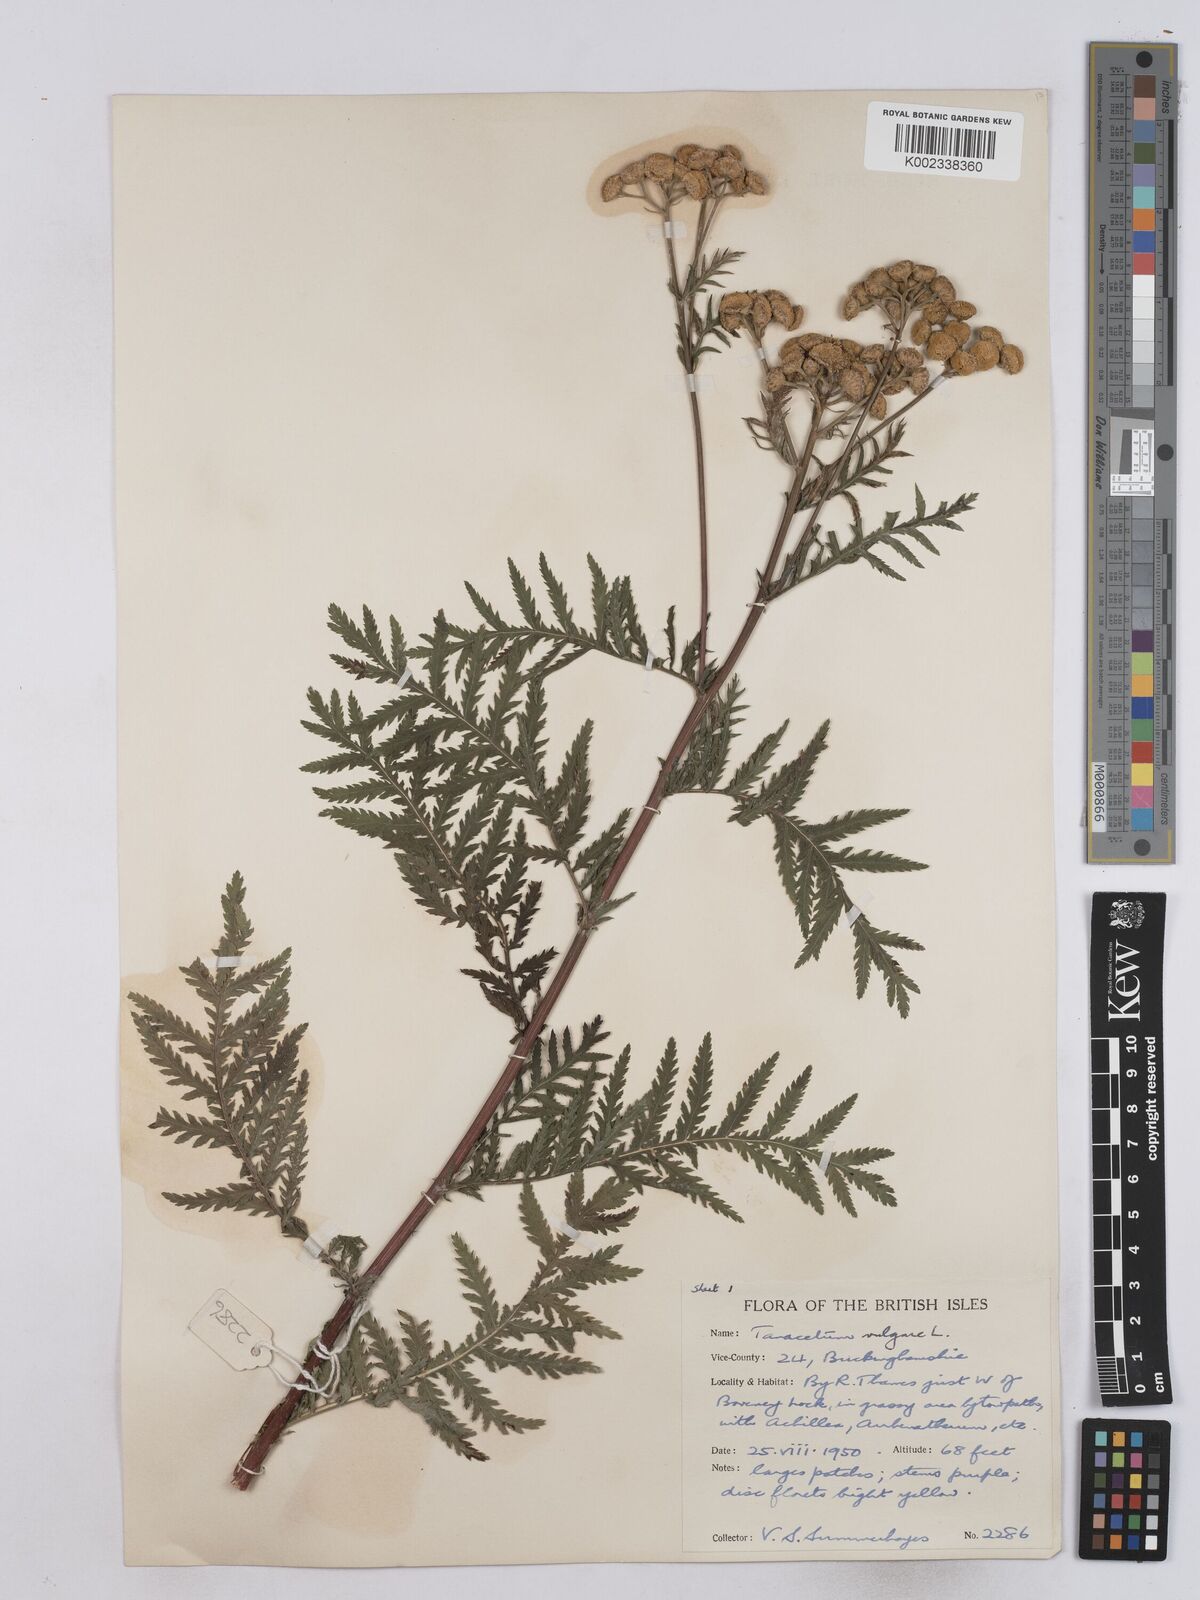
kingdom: Plantae
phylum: Tracheophyta
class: Magnoliopsida
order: Asterales
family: Asteraceae
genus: Tanacetum
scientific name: Tanacetum vulgare
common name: Common tansy
